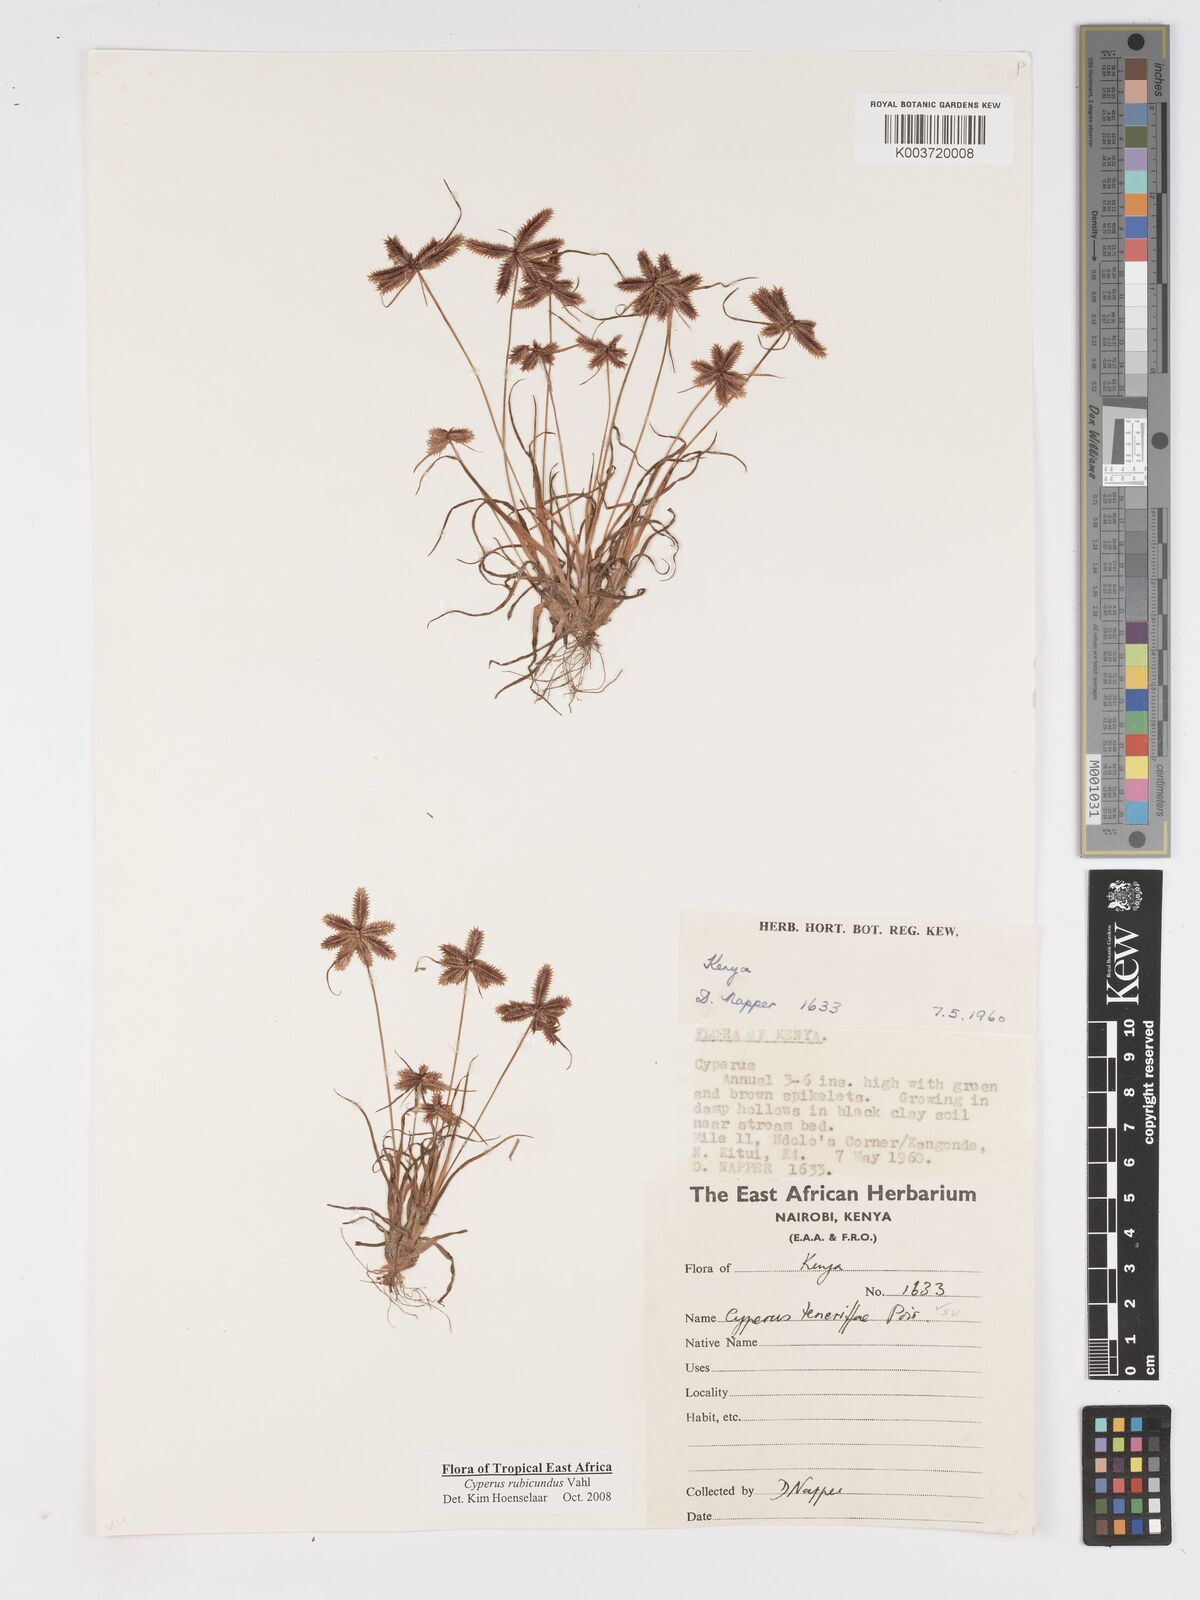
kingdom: Plantae
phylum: Tracheophyta
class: Liliopsida
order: Poales
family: Cyperaceae
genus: Cyperus
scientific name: Cyperus rubicundus
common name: Coco-grass
